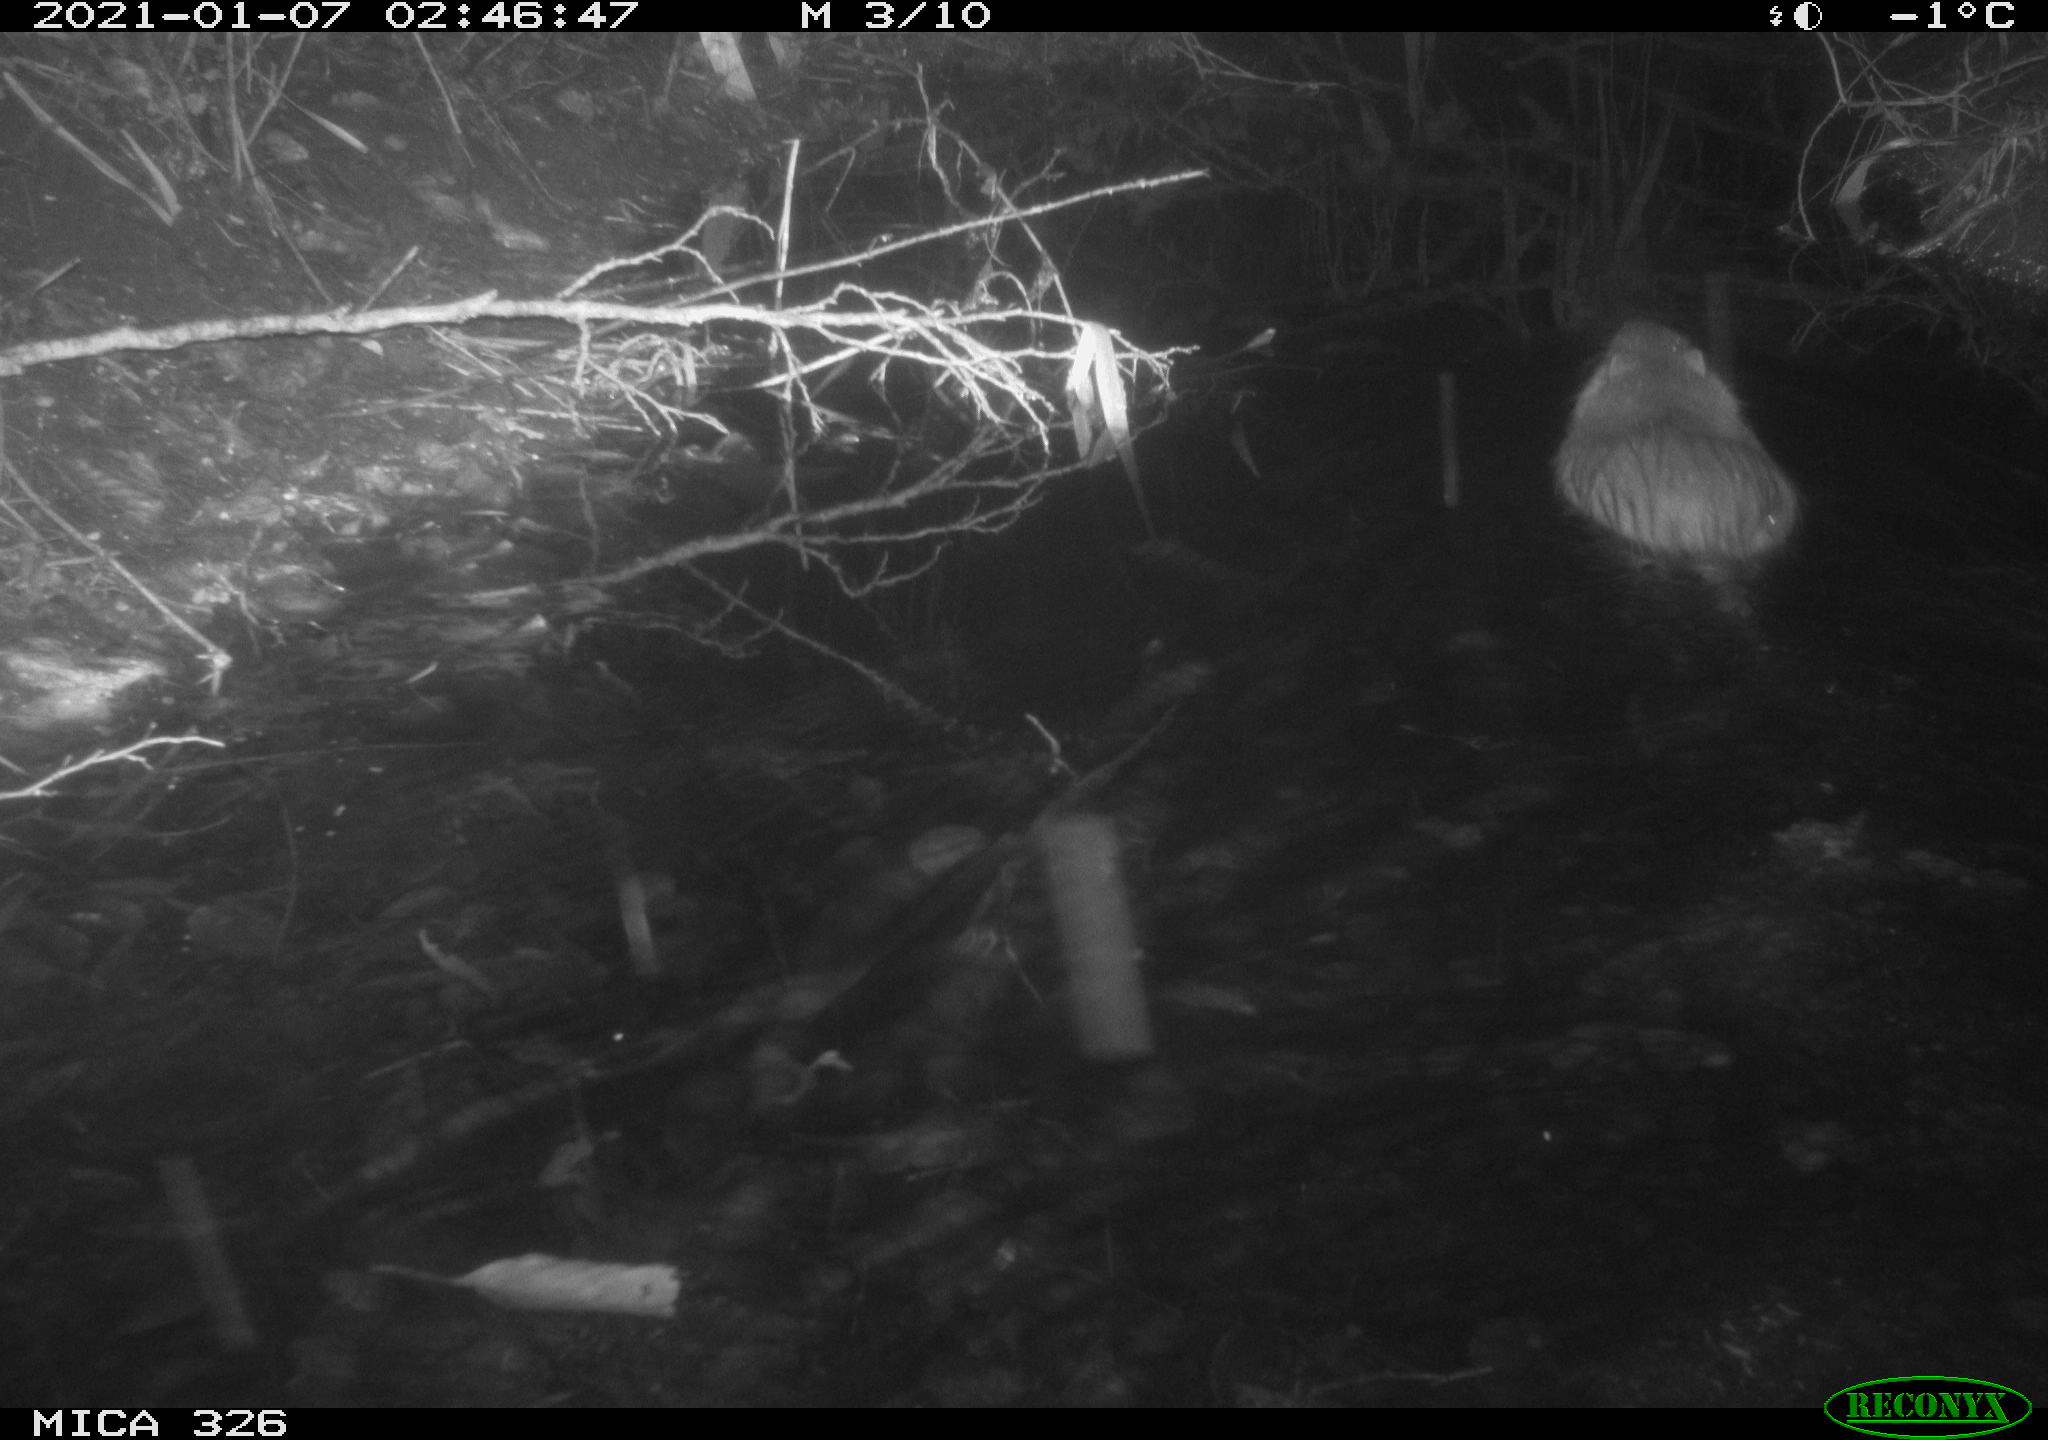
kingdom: Animalia
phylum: Chordata
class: Mammalia
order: Rodentia
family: Myocastoridae
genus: Myocastor
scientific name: Myocastor coypus
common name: Coypu
